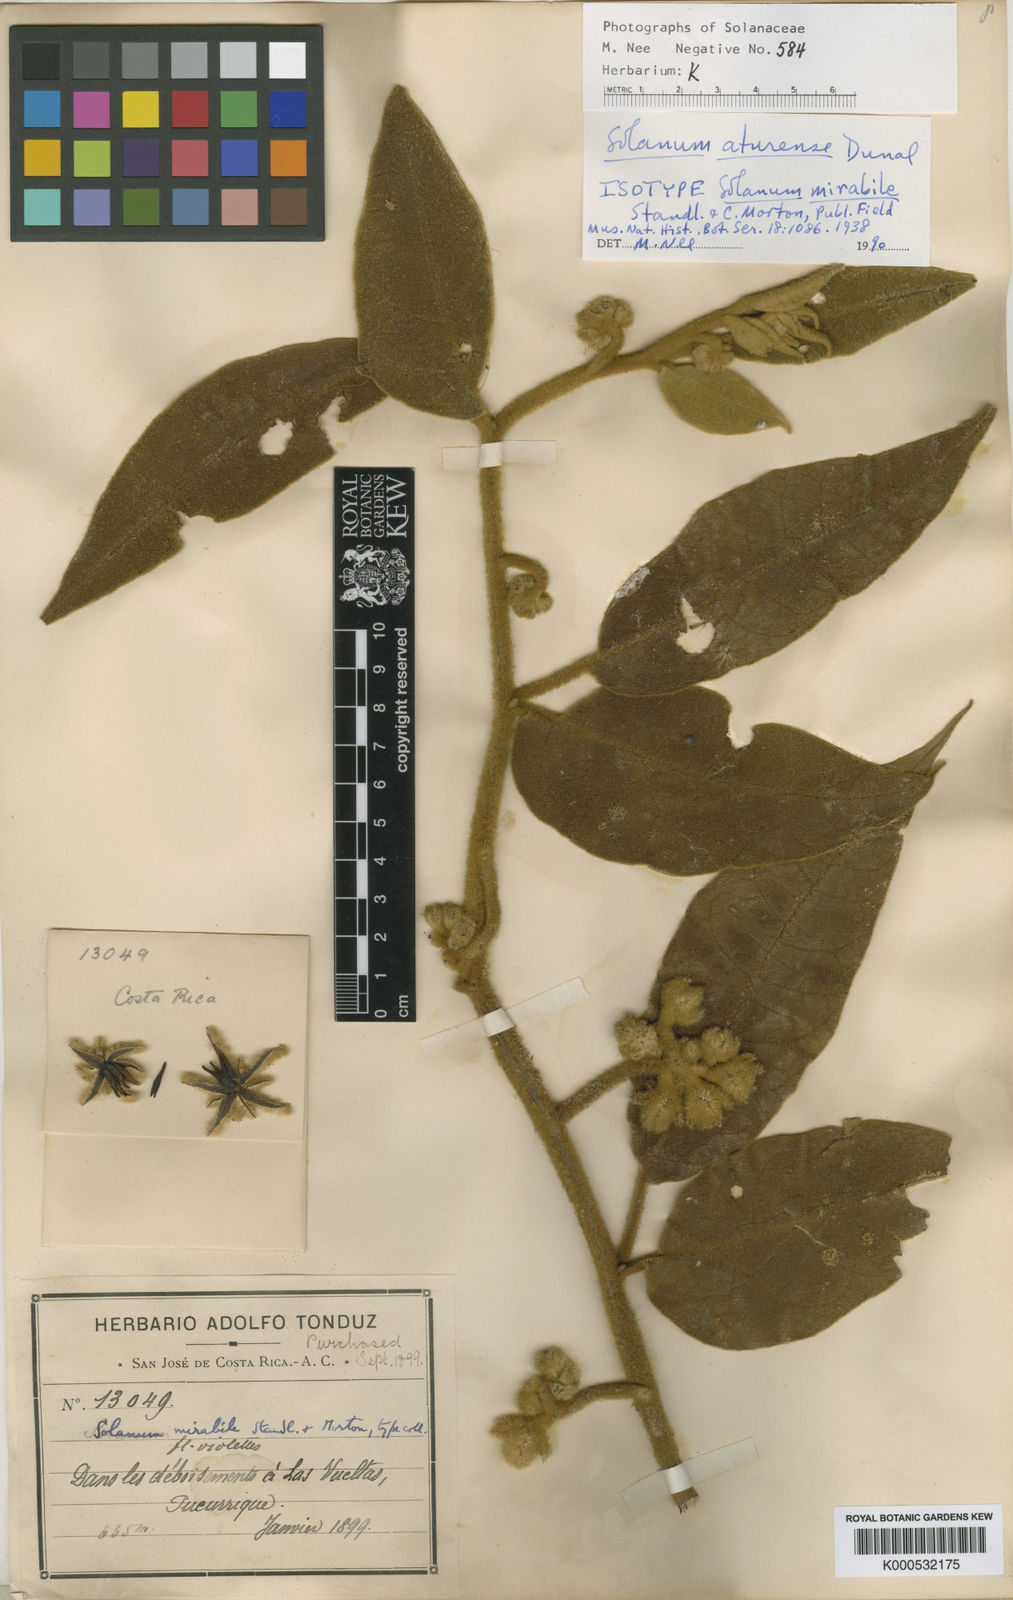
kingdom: Plantae
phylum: Tracheophyta
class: Magnoliopsida
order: Solanales
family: Solanaceae
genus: Solanum
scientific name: Solanum aturense
